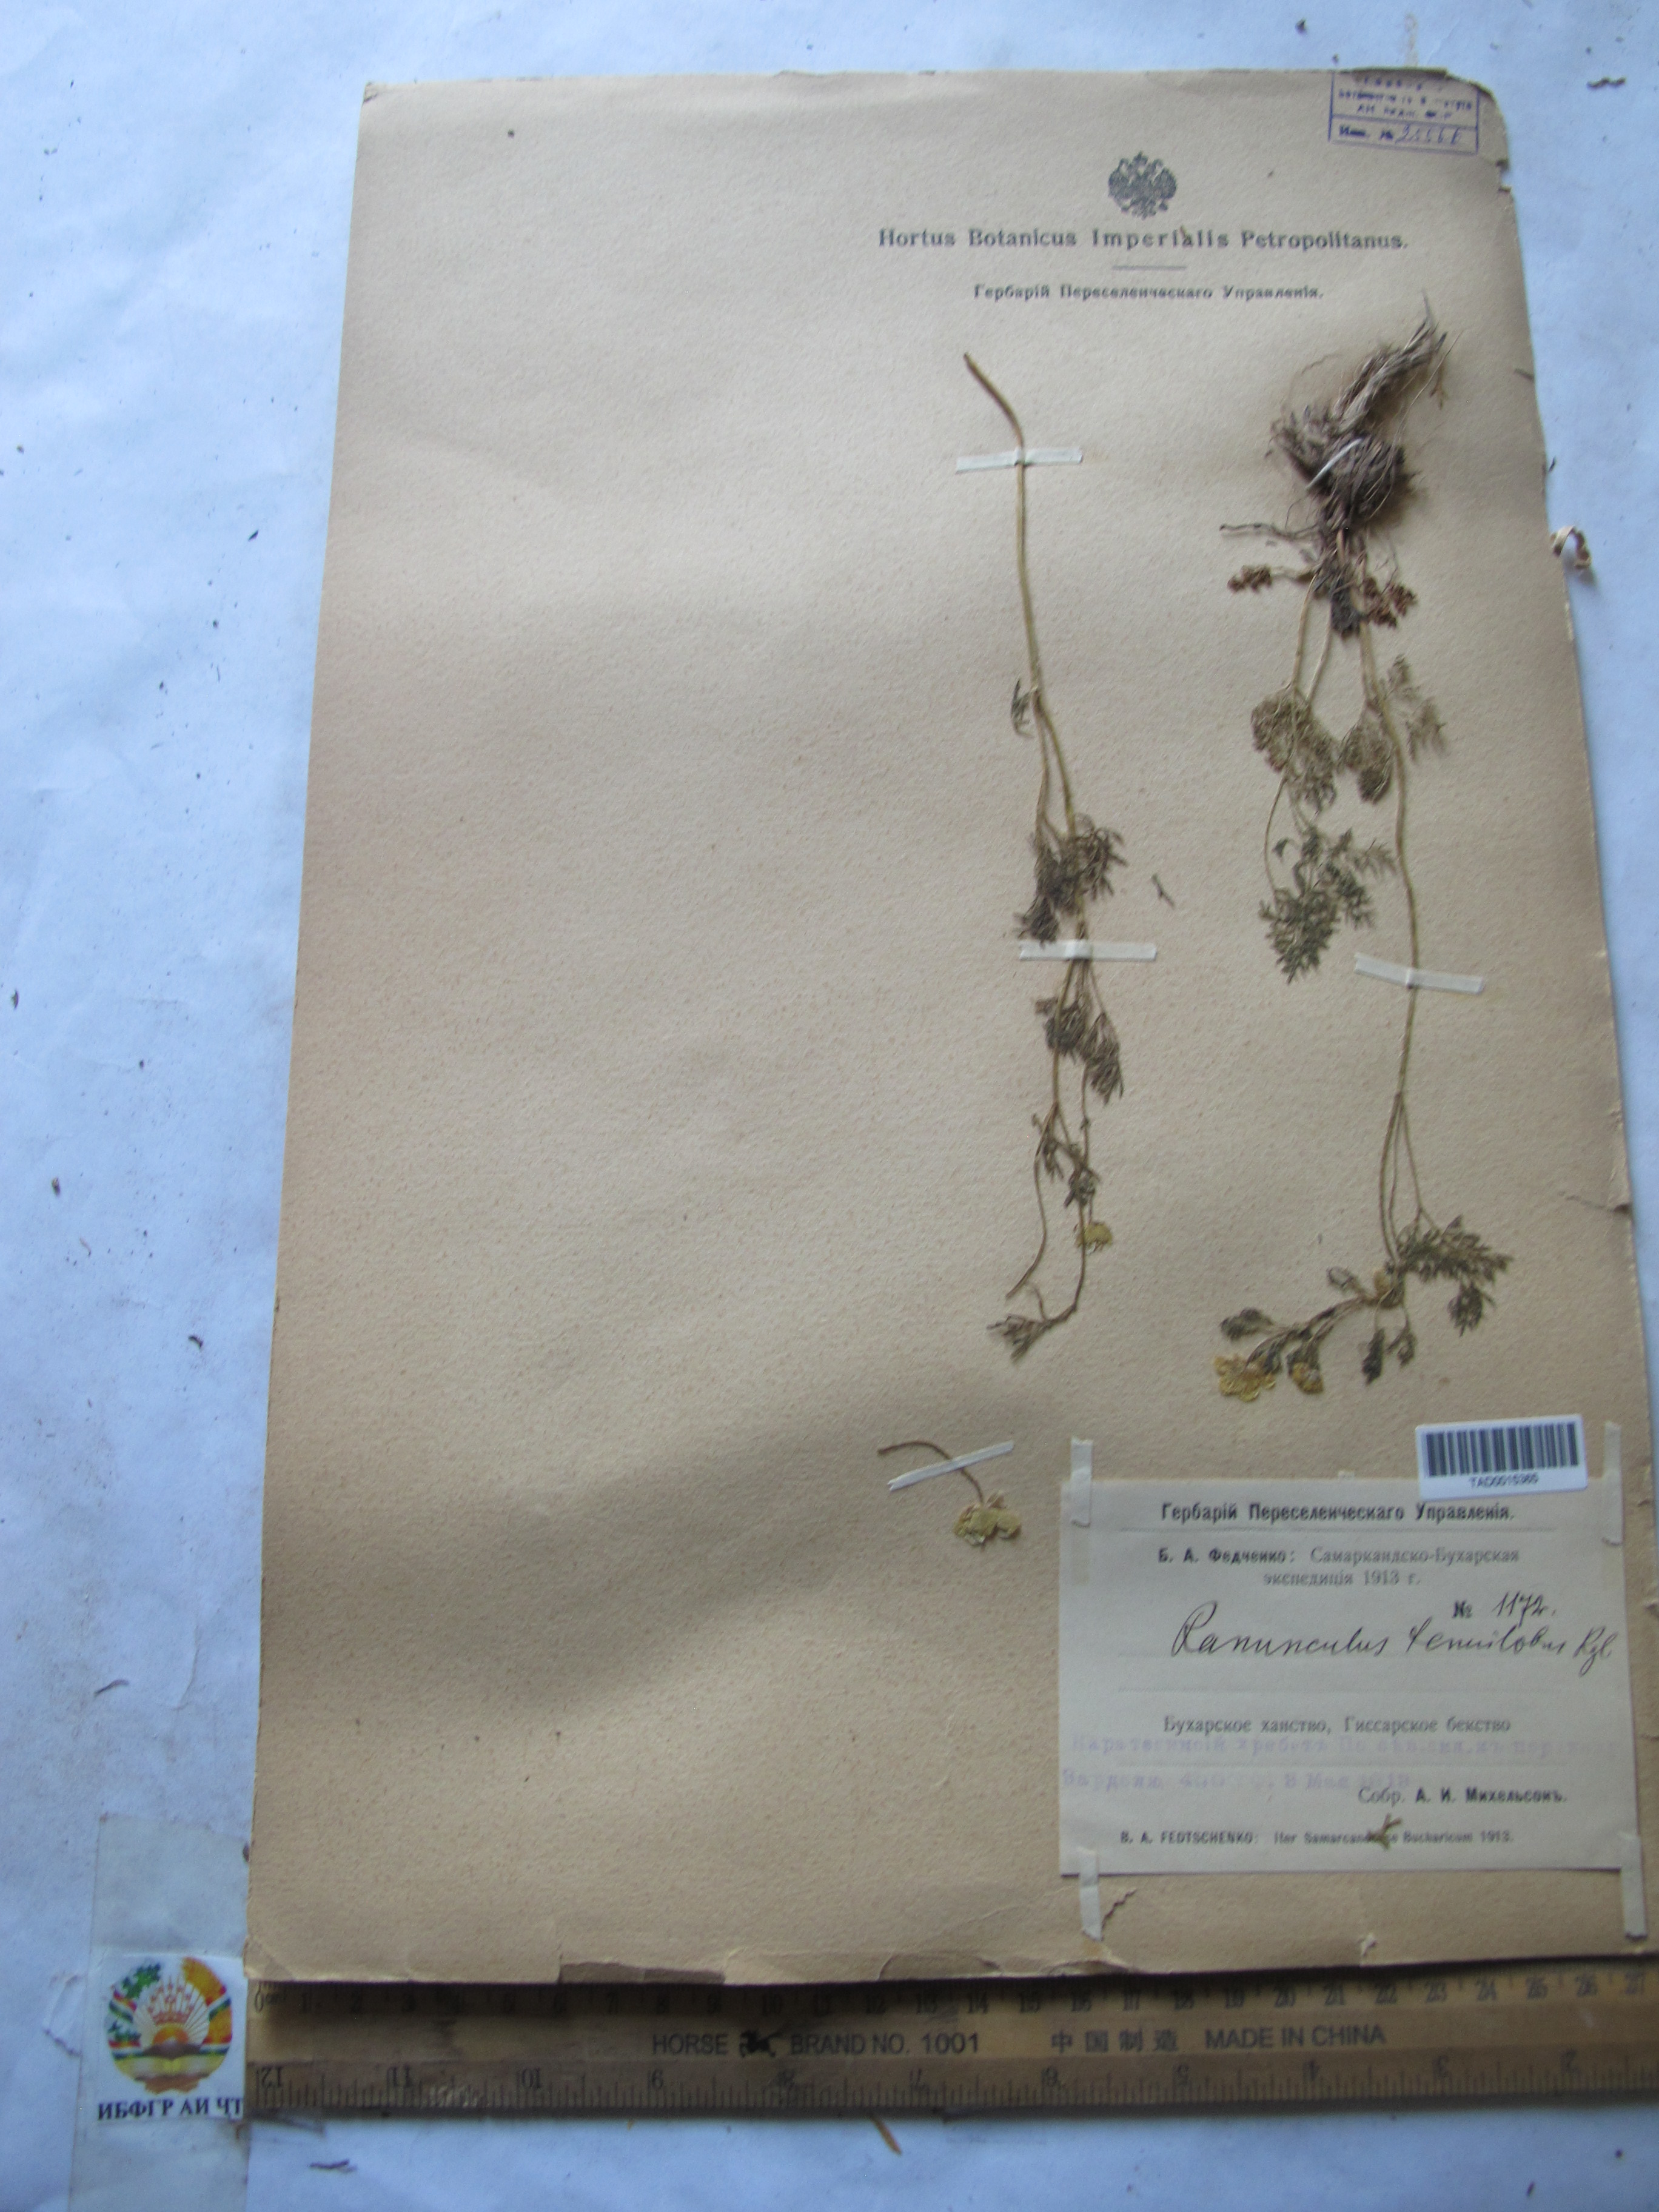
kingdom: Plantae
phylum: Tracheophyta
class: Magnoliopsida
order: Ranunculales
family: Ranunculaceae
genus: Ranunculus
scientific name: Ranunculus tenuilobus
